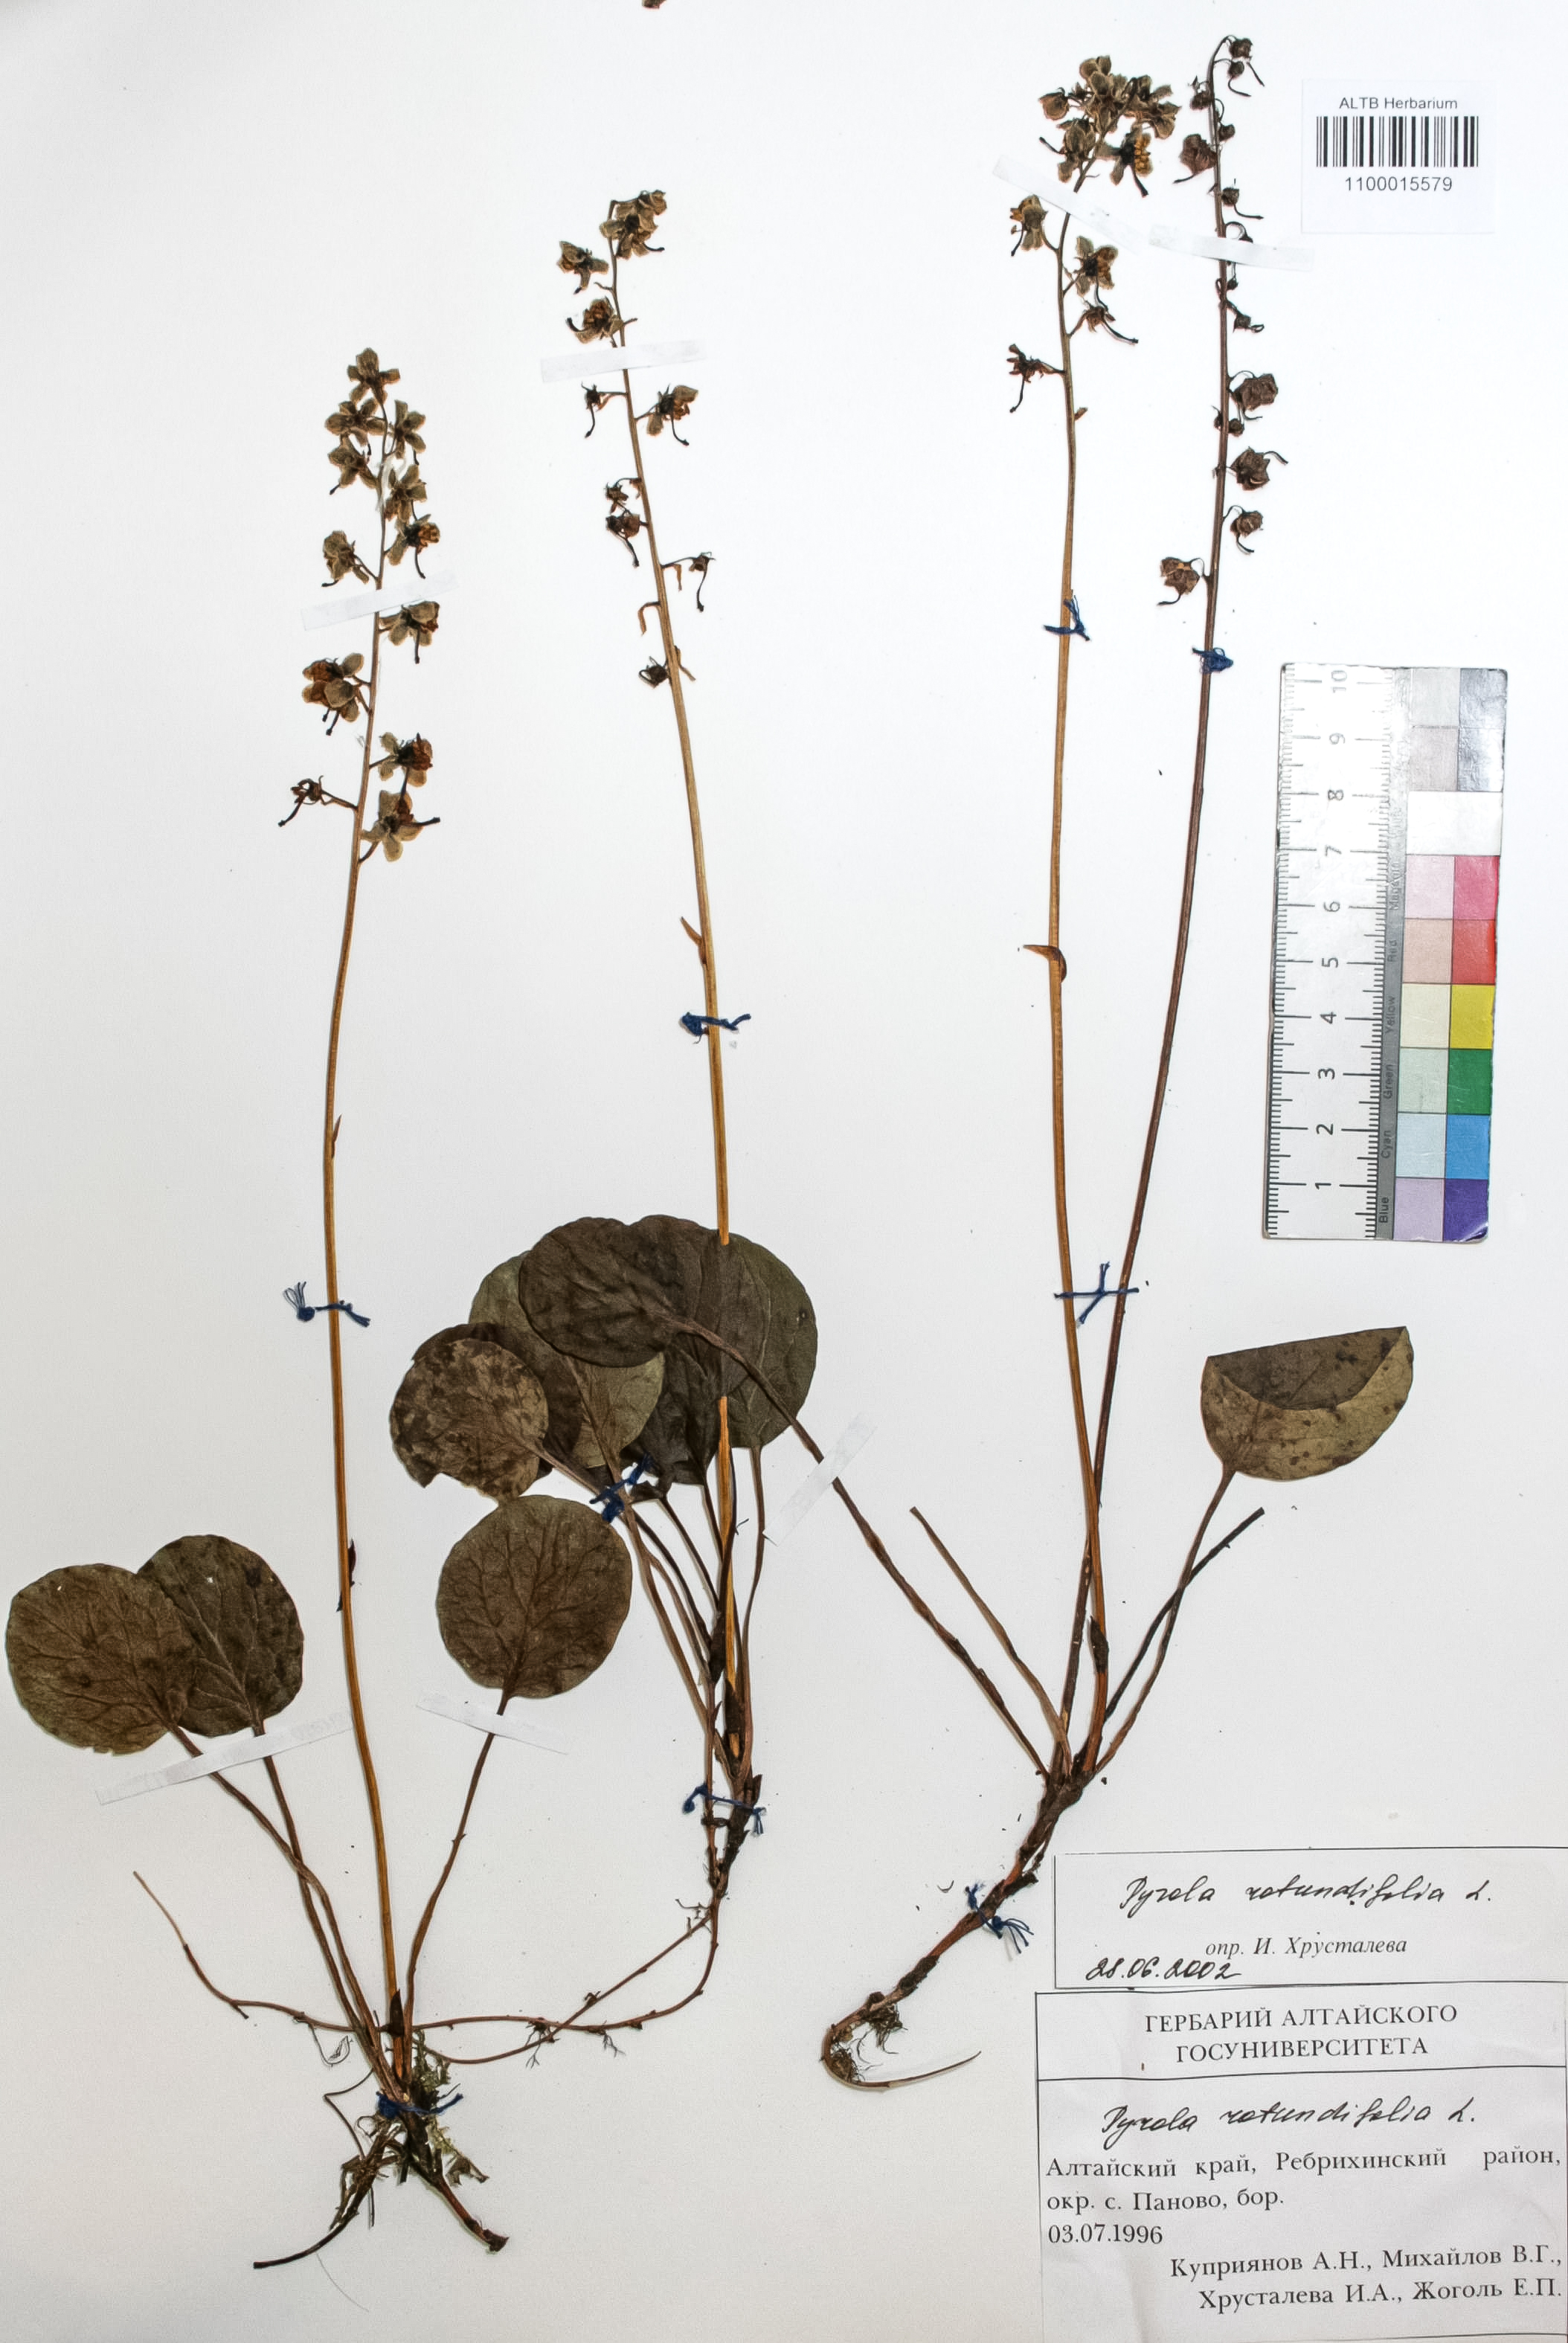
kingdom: Plantae
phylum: Tracheophyta
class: Magnoliopsida
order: Ericales
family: Ericaceae
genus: Pyrola
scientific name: Pyrola rotundifolia
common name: Round-leaved wintergreen
